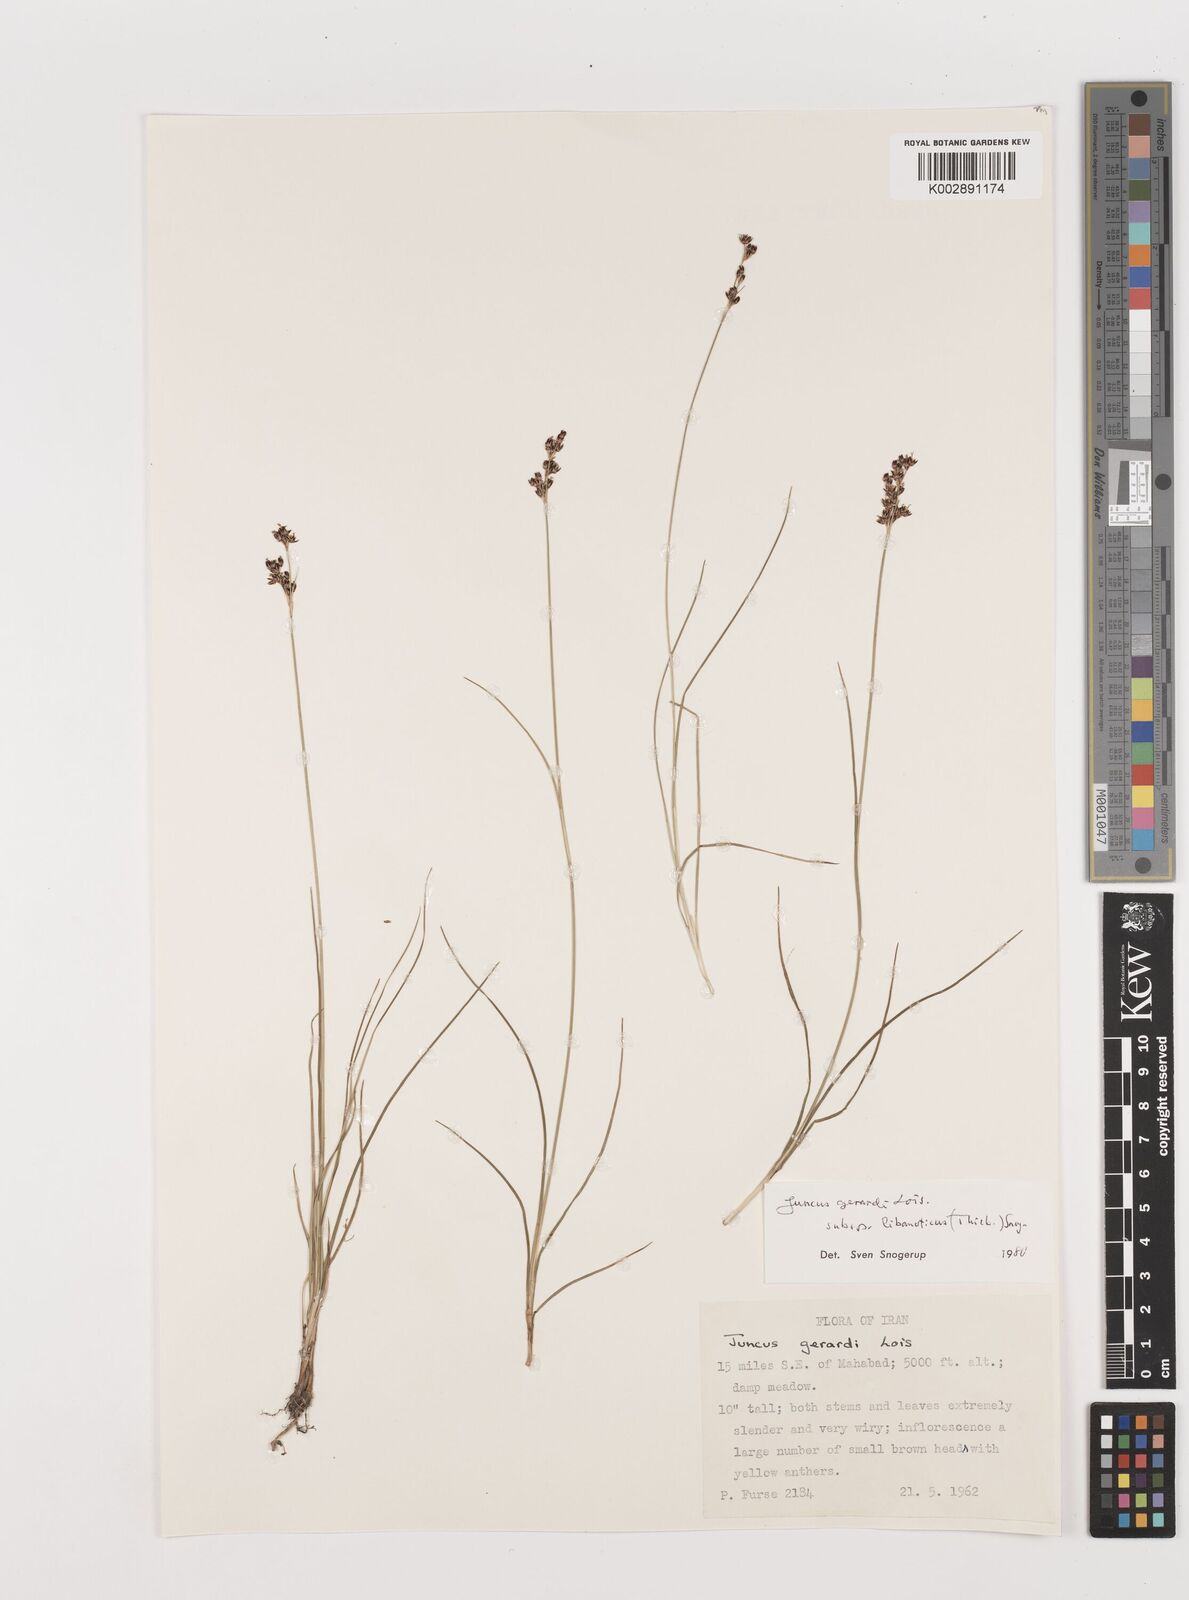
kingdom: Plantae
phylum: Tracheophyta
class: Liliopsida
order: Poales
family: Juncaceae
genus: Juncus
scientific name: Juncus persicus
